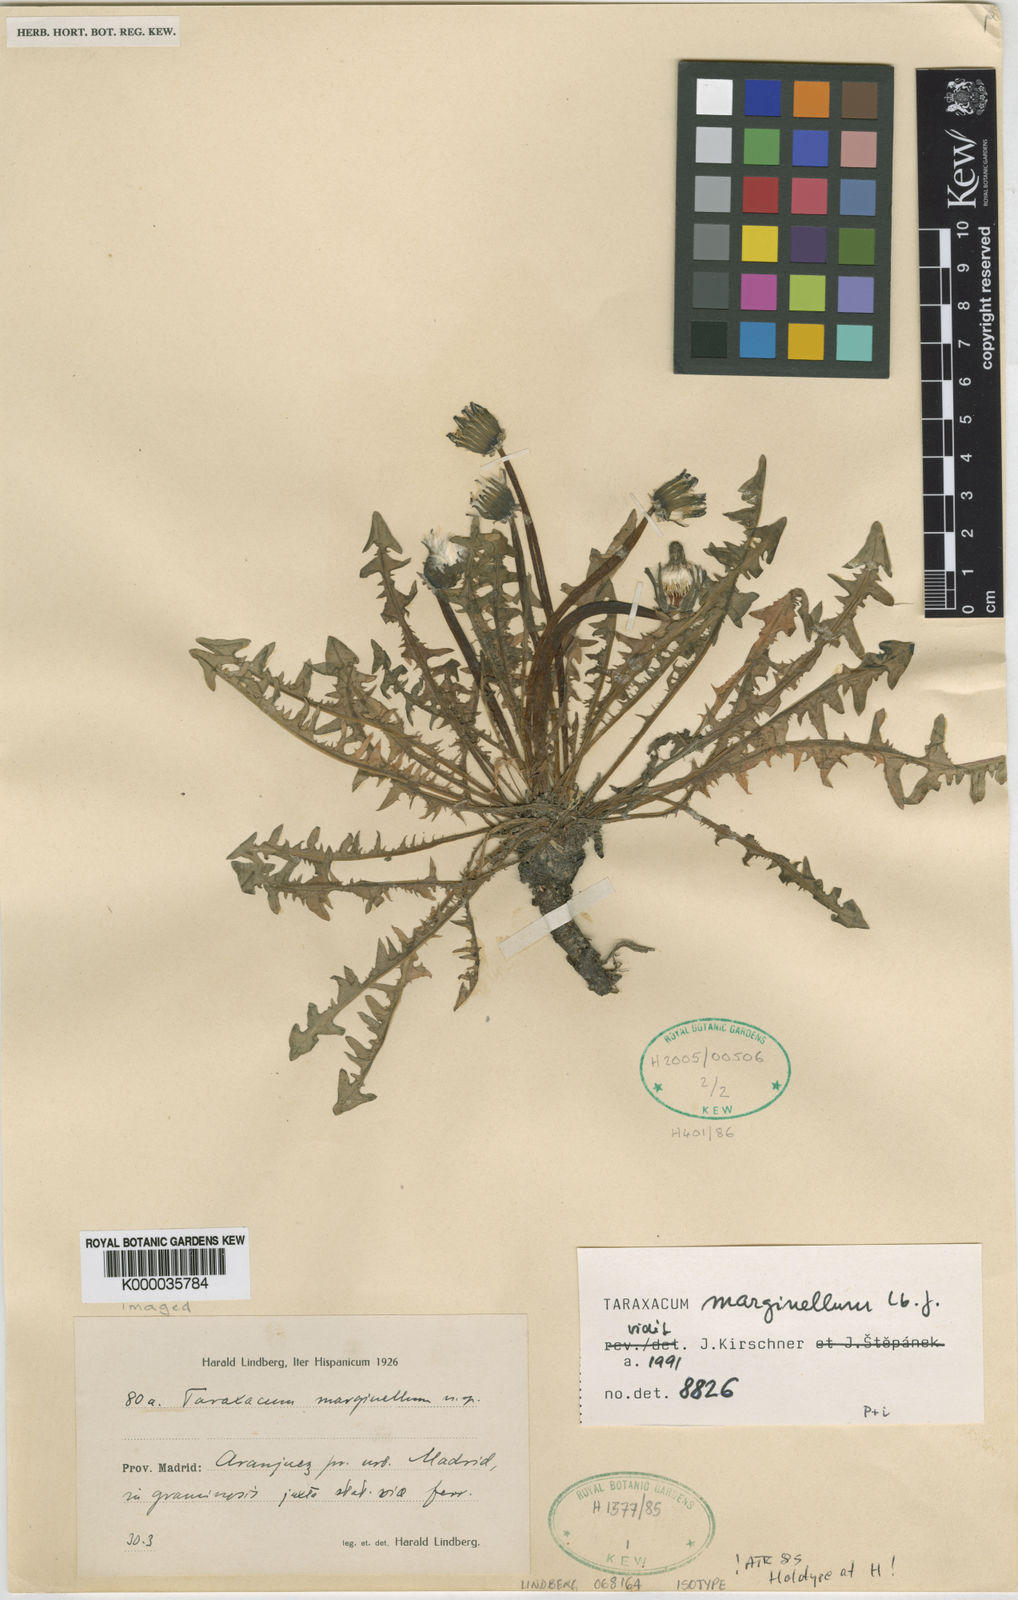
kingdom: Plantae
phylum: Tracheophyta
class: Magnoliopsida
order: Asterales
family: Asteraceae
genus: Taraxacum
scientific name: Taraxacum marginellum
